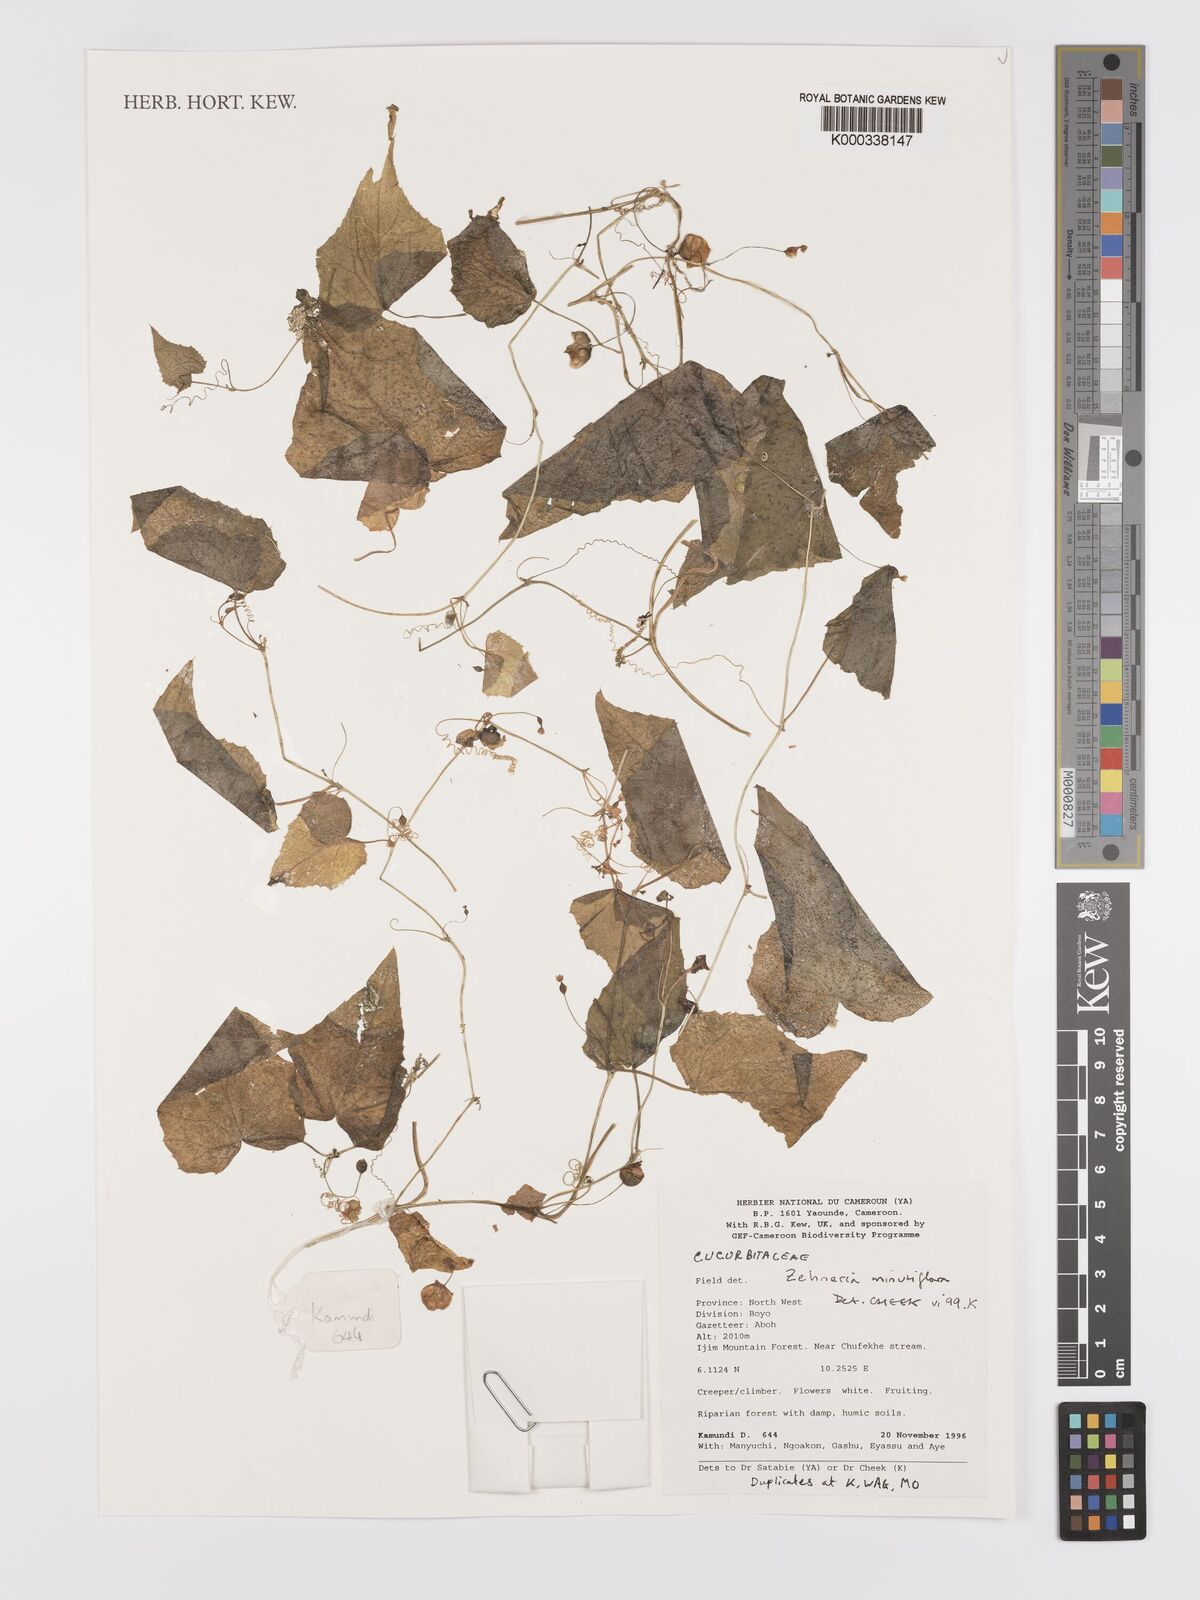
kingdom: Plantae
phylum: Tracheophyta
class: Magnoliopsida
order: Cucurbitales
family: Cucurbitaceae
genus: Zehneria
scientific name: Zehneria minutiflora
